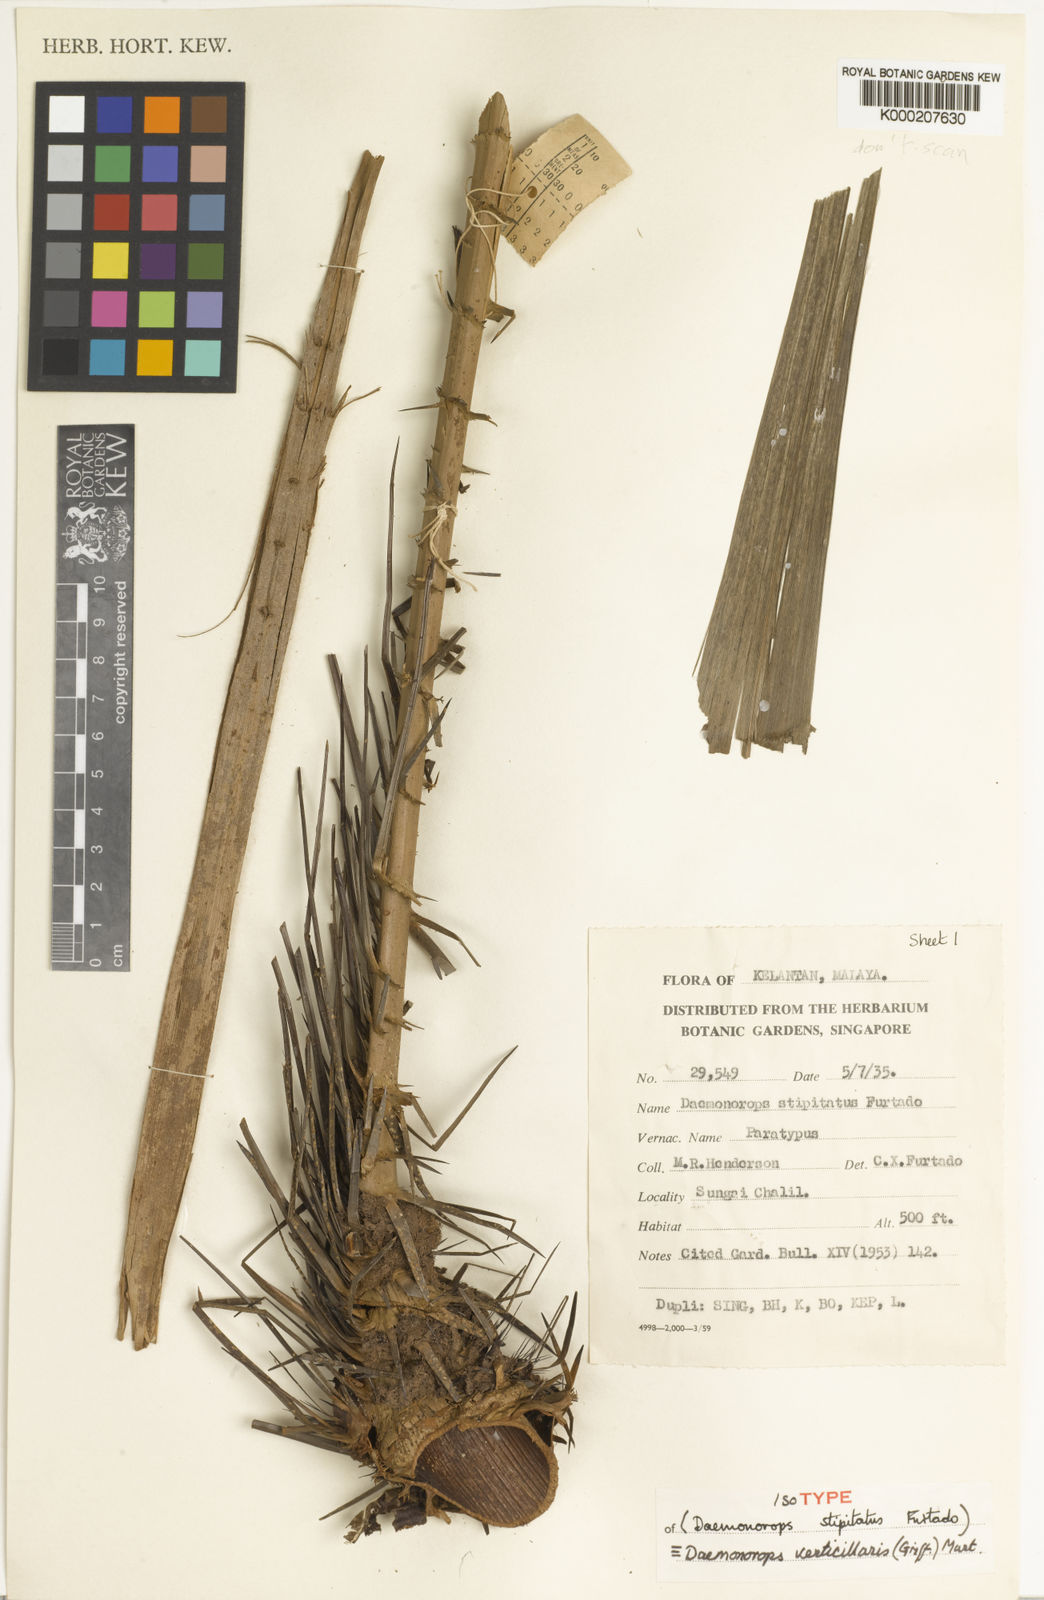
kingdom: Plantae
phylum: Tracheophyta
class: Liliopsida
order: Arecales
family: Arecaceae
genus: Calamus
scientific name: Calamus verticillaris
